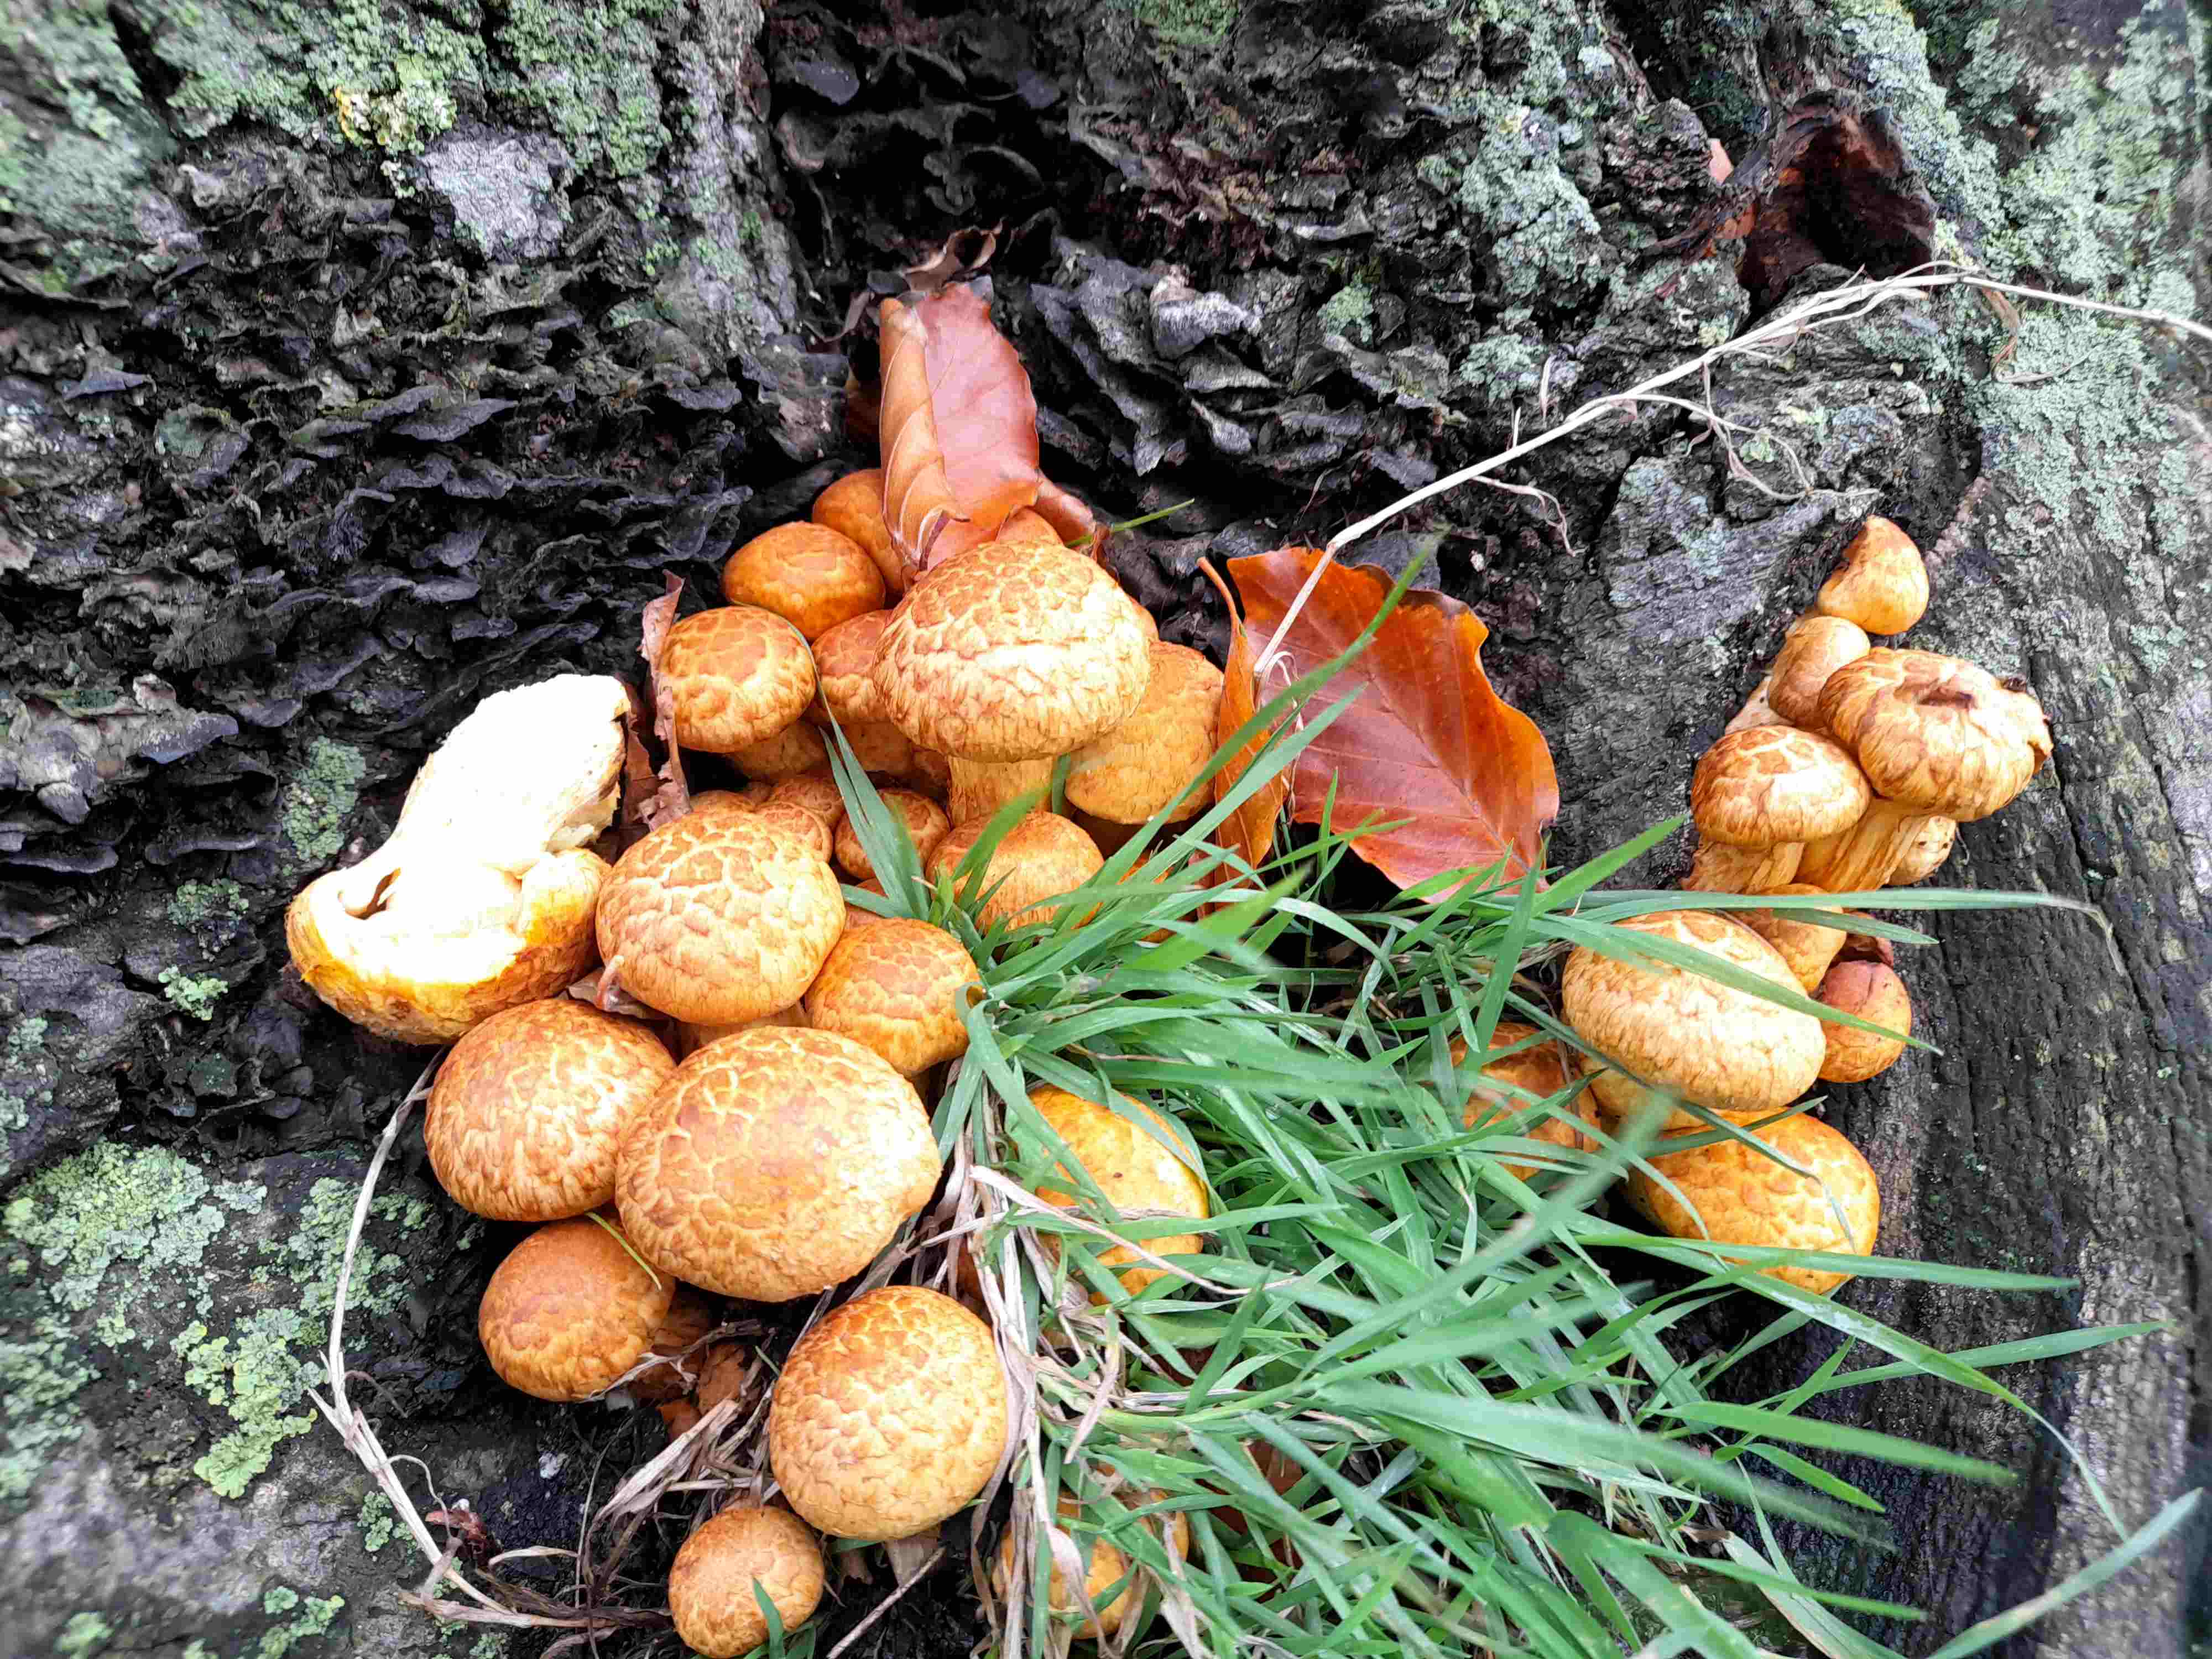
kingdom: Fungi
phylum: Basidiomycota
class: Agaricomycetes
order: Agaricales
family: Hymenogastraceae
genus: Gymnopilus
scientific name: Gymnopilus spectabilis
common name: fibret flammehat
